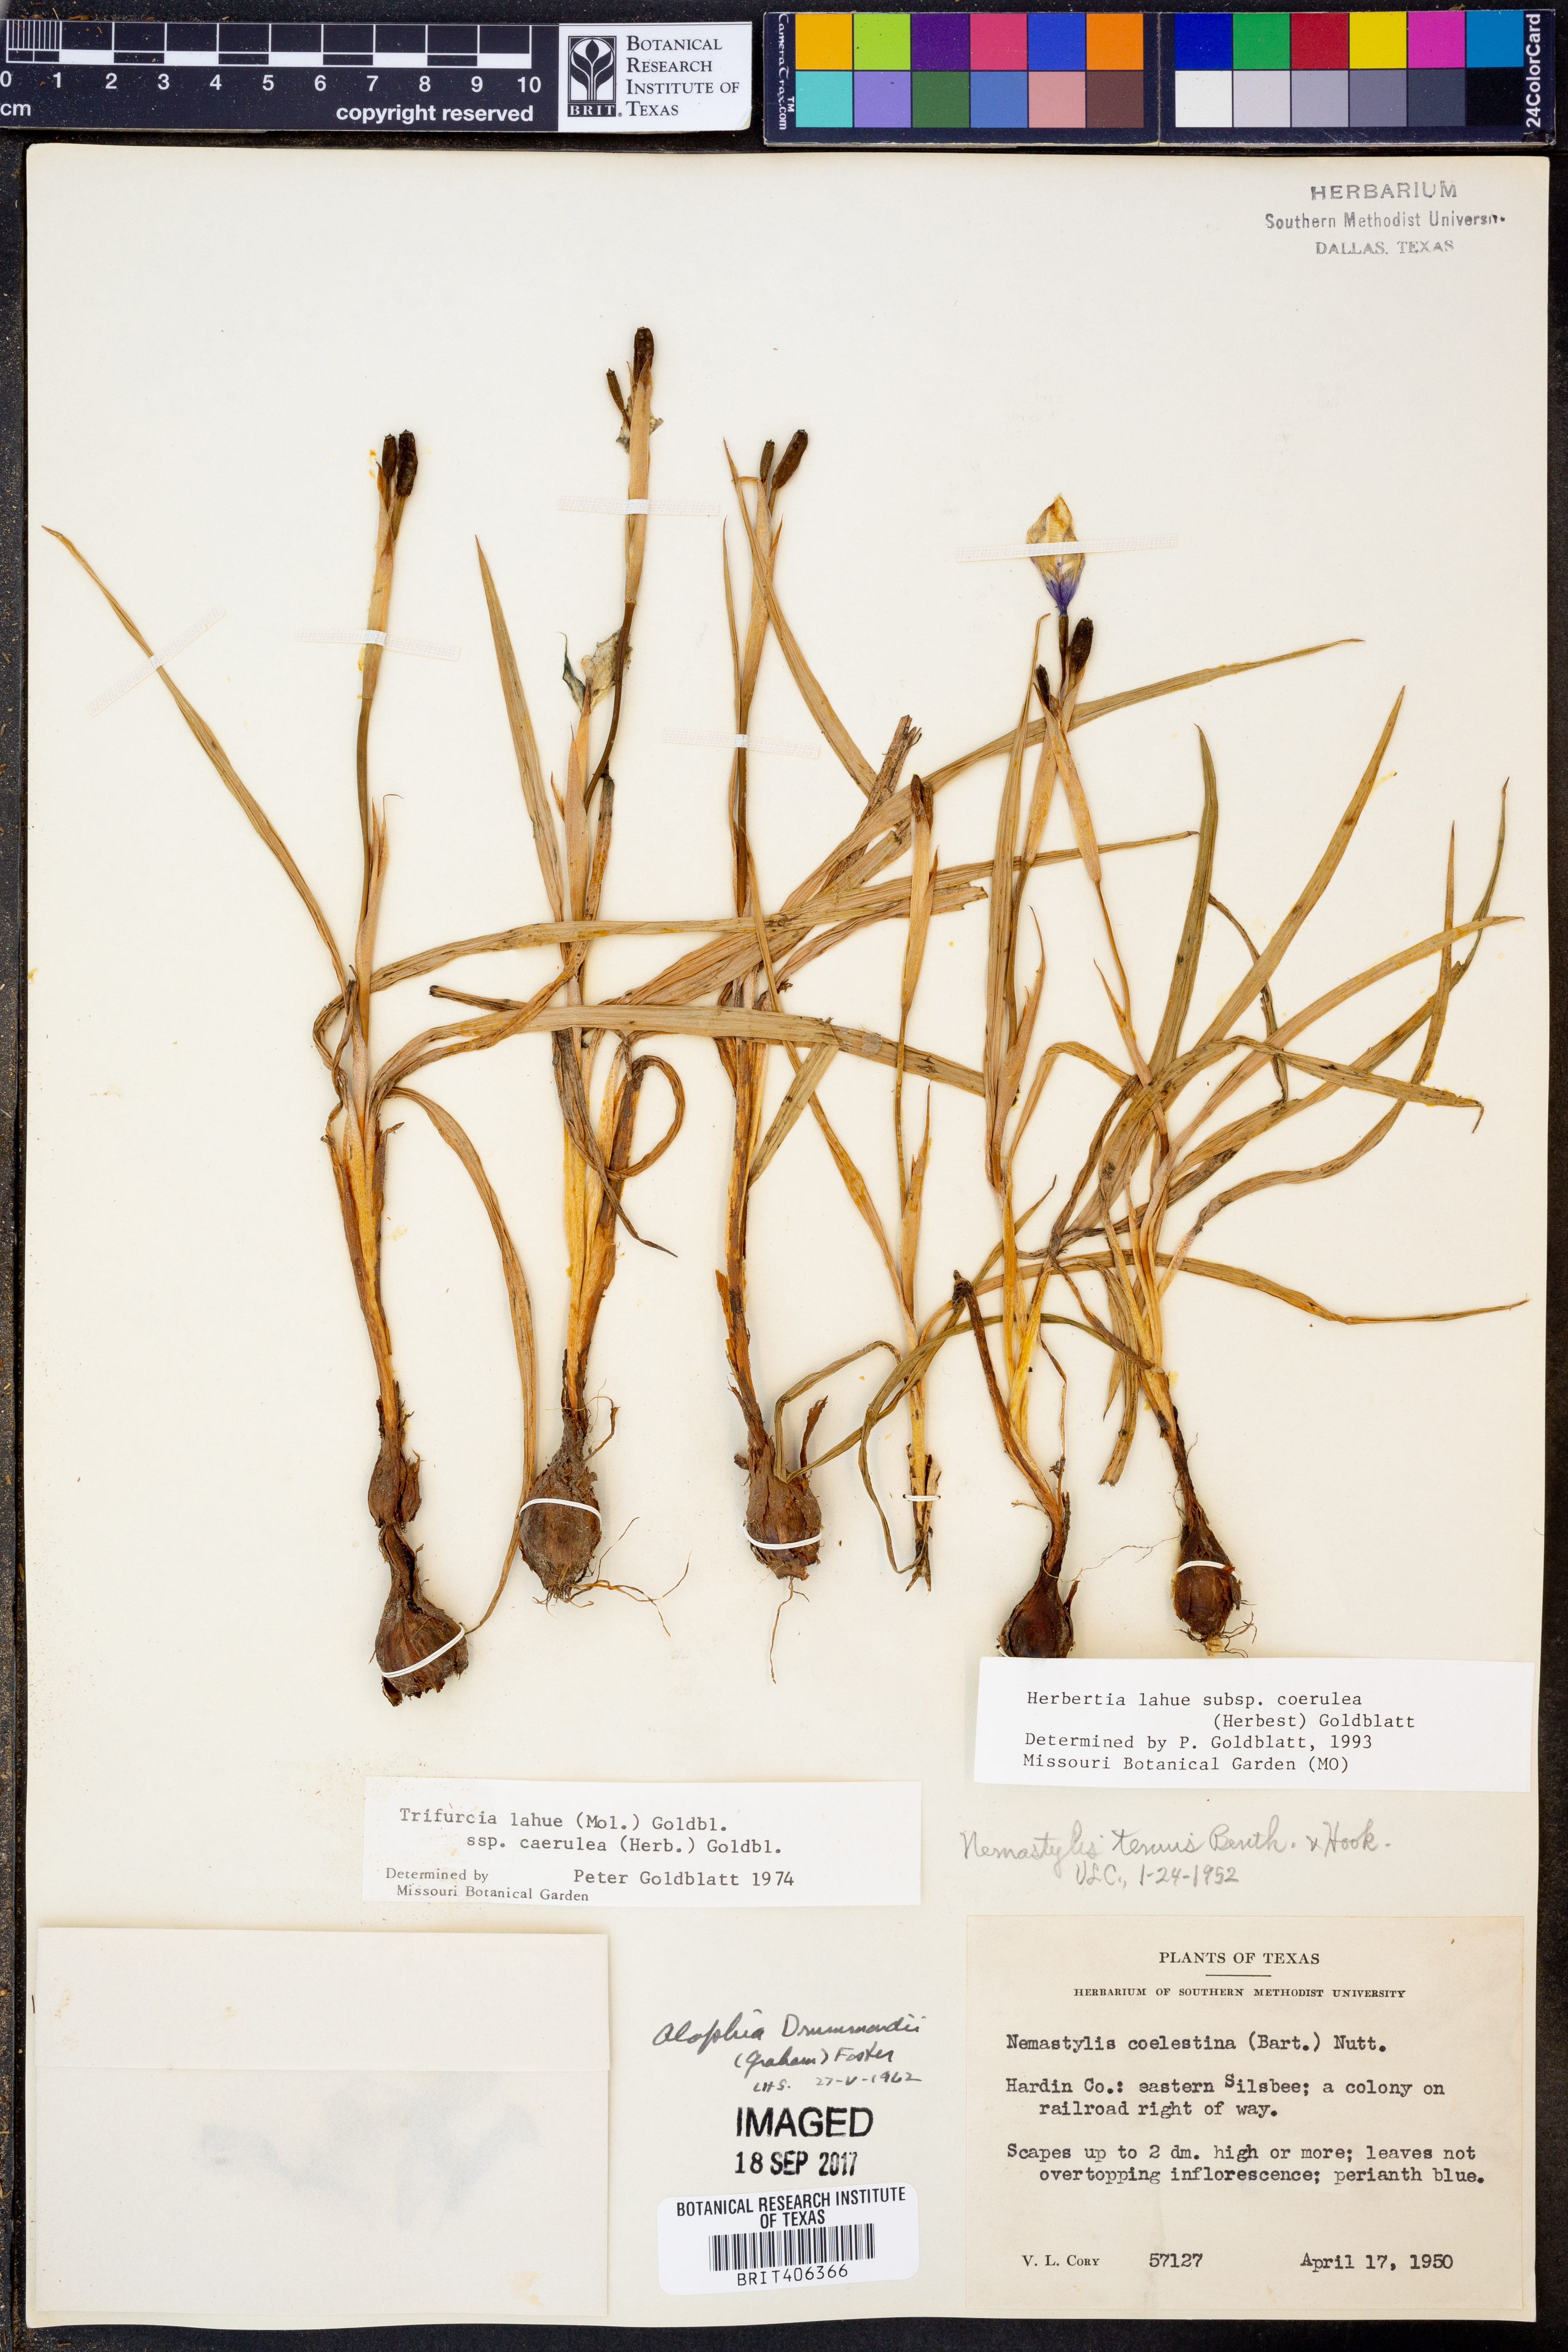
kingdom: Plantae
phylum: Tracheophyta
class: Liliopsida
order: Asparagales
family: Iridaceae
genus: Herbertia
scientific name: Herbertia lahue
